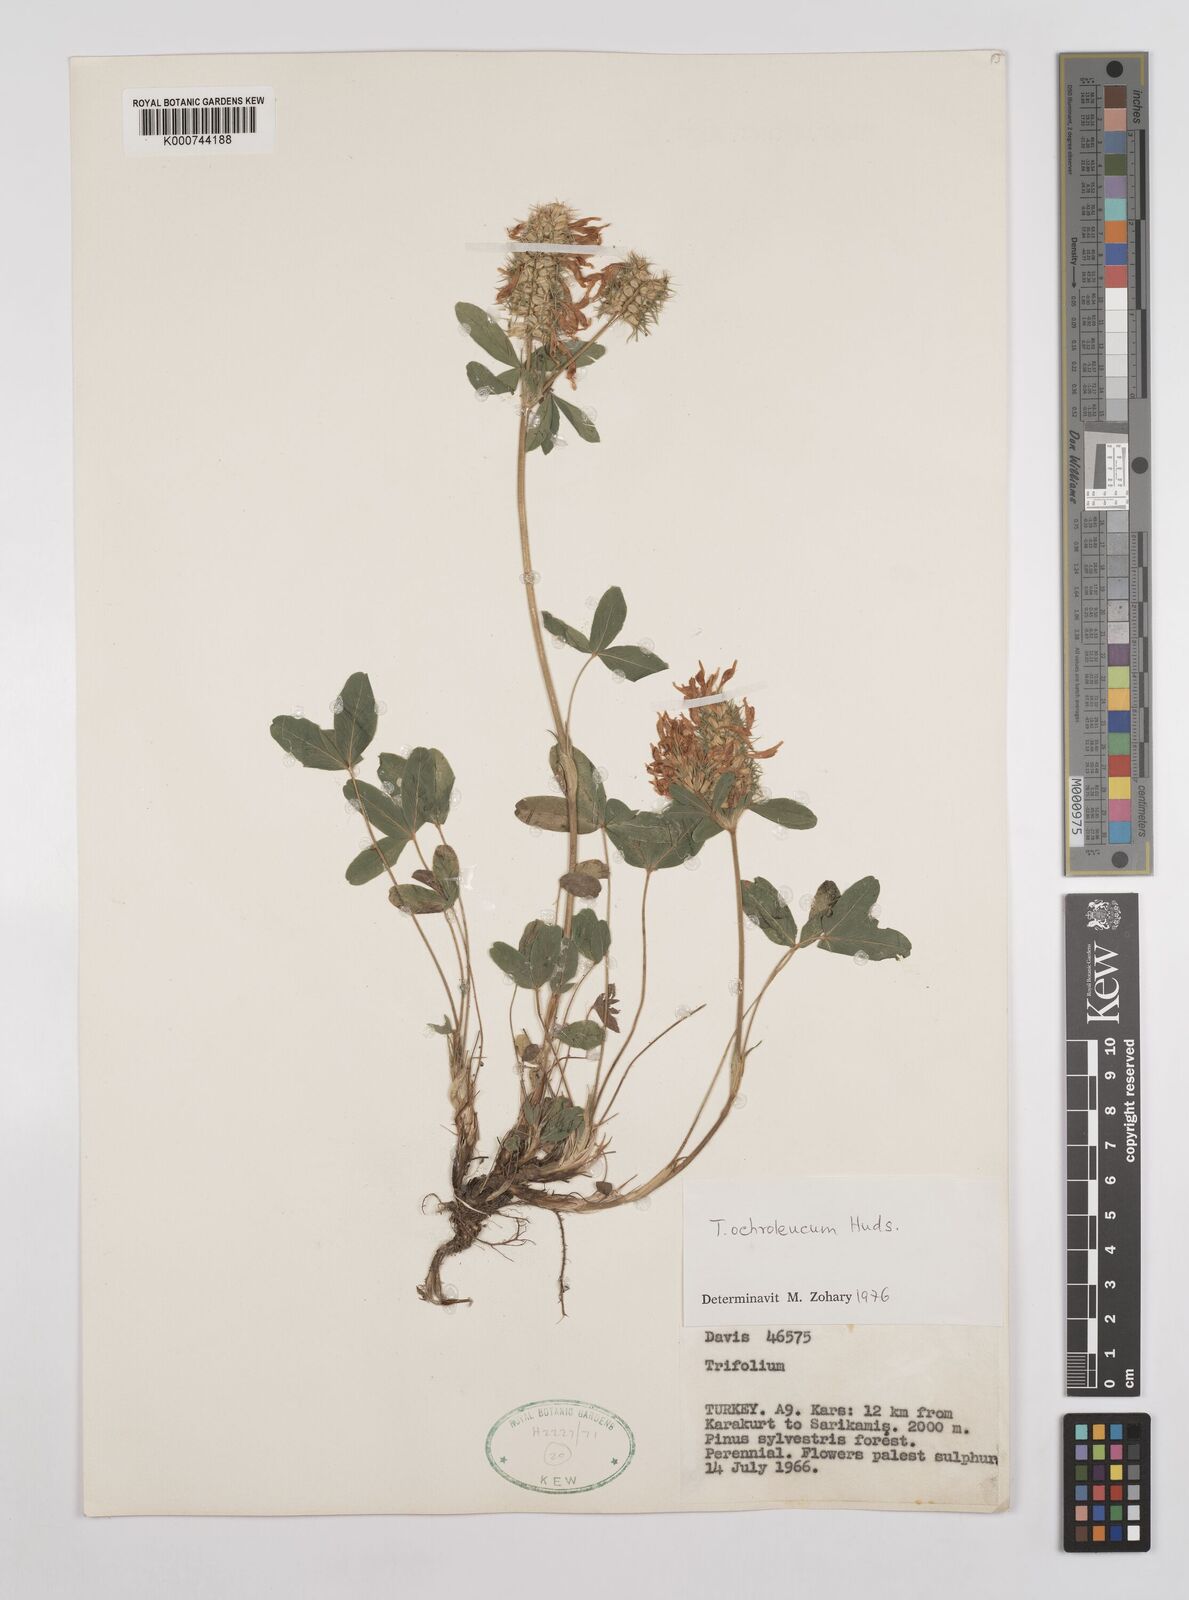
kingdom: Plantae
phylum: Tracheophyta
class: Magnoliopsida
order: Fabales
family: Fabaceae
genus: Trifolium
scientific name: Trifolium
